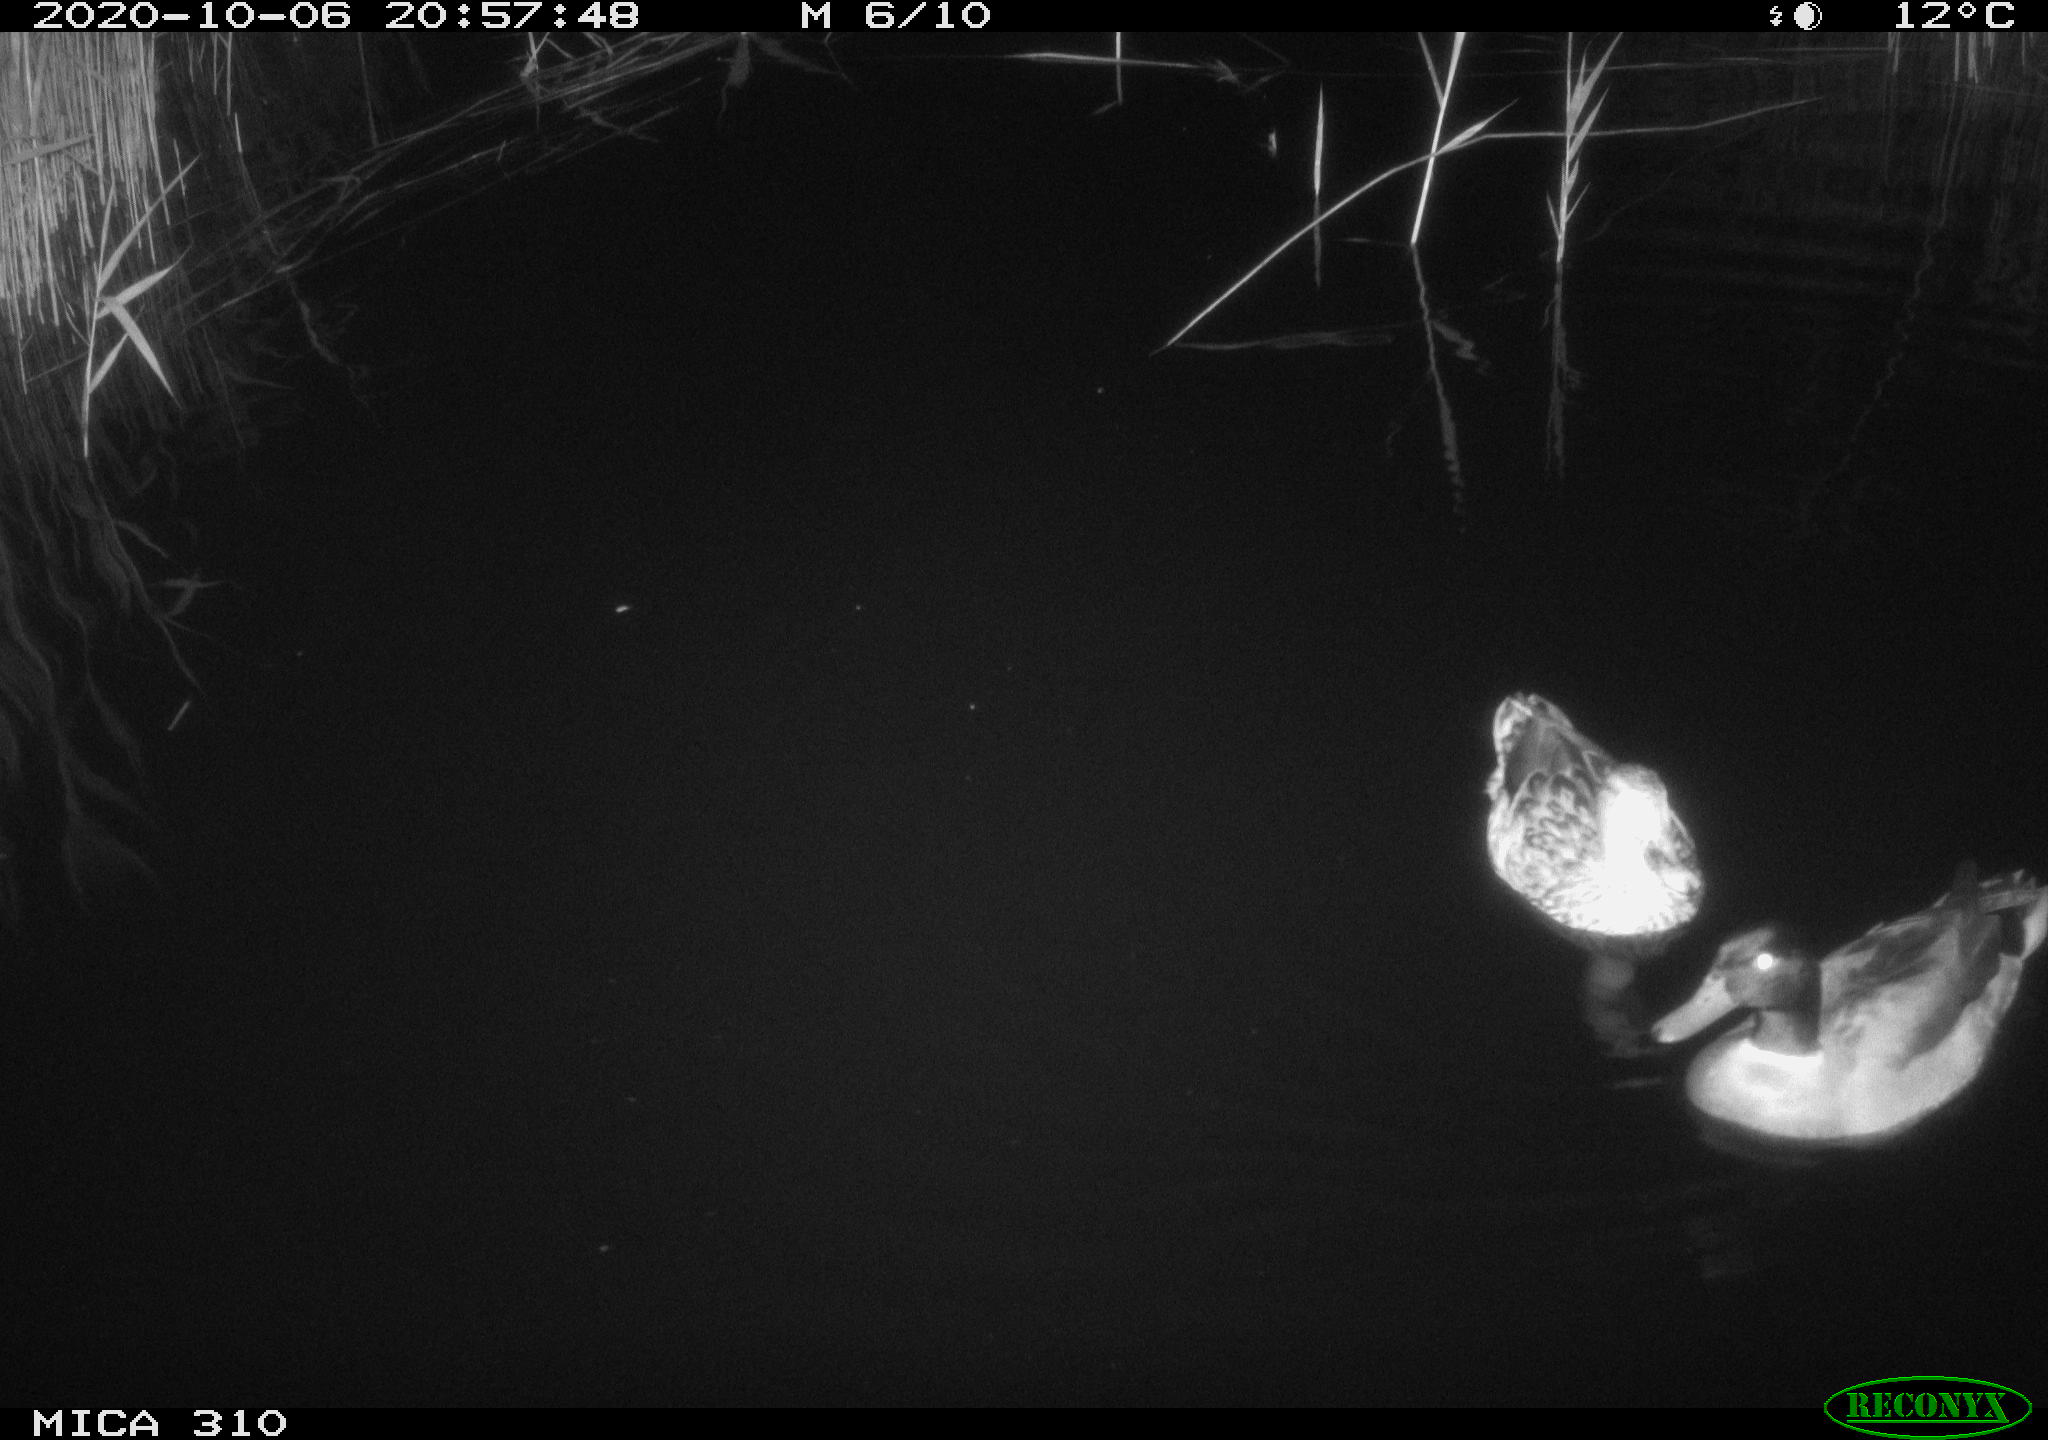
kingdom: Animalia
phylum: Chordata
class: Aves
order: Anseriformes
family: Anatidae
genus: Anas
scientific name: Anas platyrhynchos
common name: Mallard
